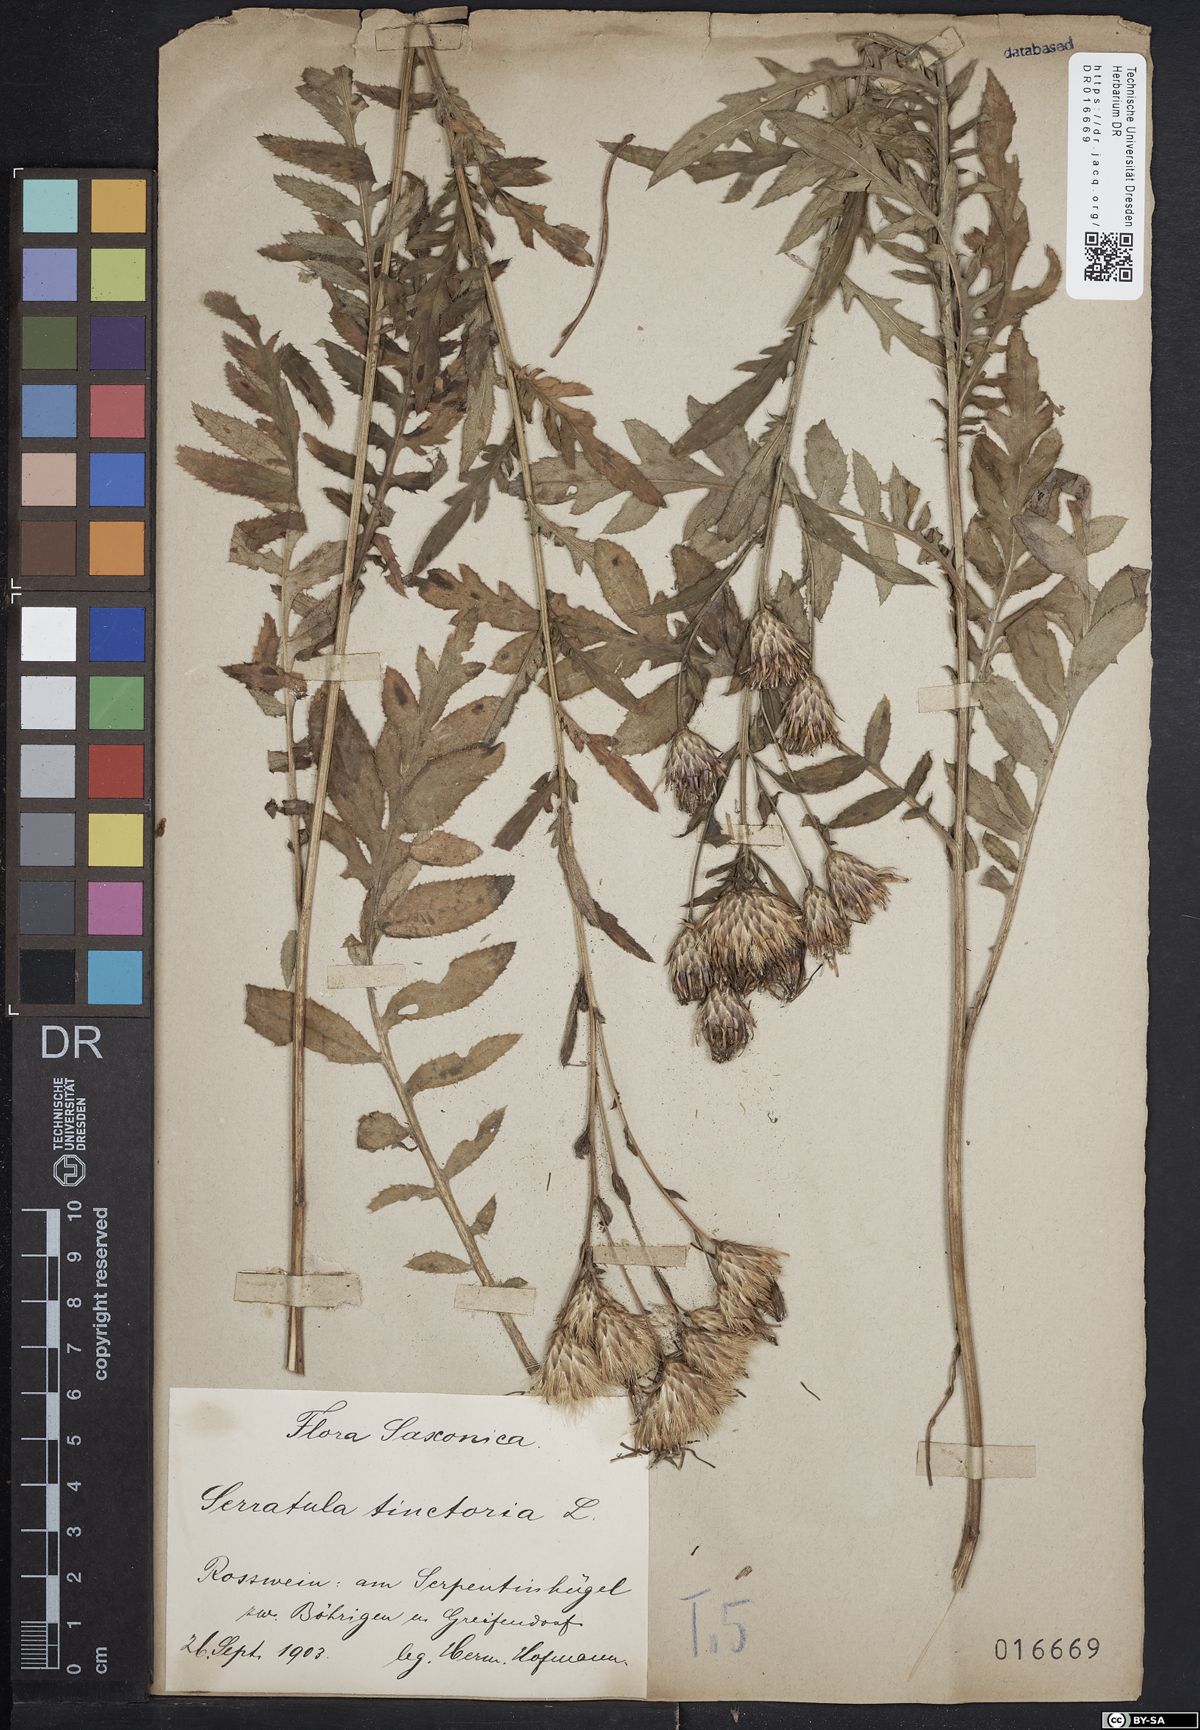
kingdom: Plantae
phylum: Tracheophyta
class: Magnoliopsida
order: Asterales
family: Asteraceae
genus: Serratula
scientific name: Serratula tinctoria
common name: Saw-wort
